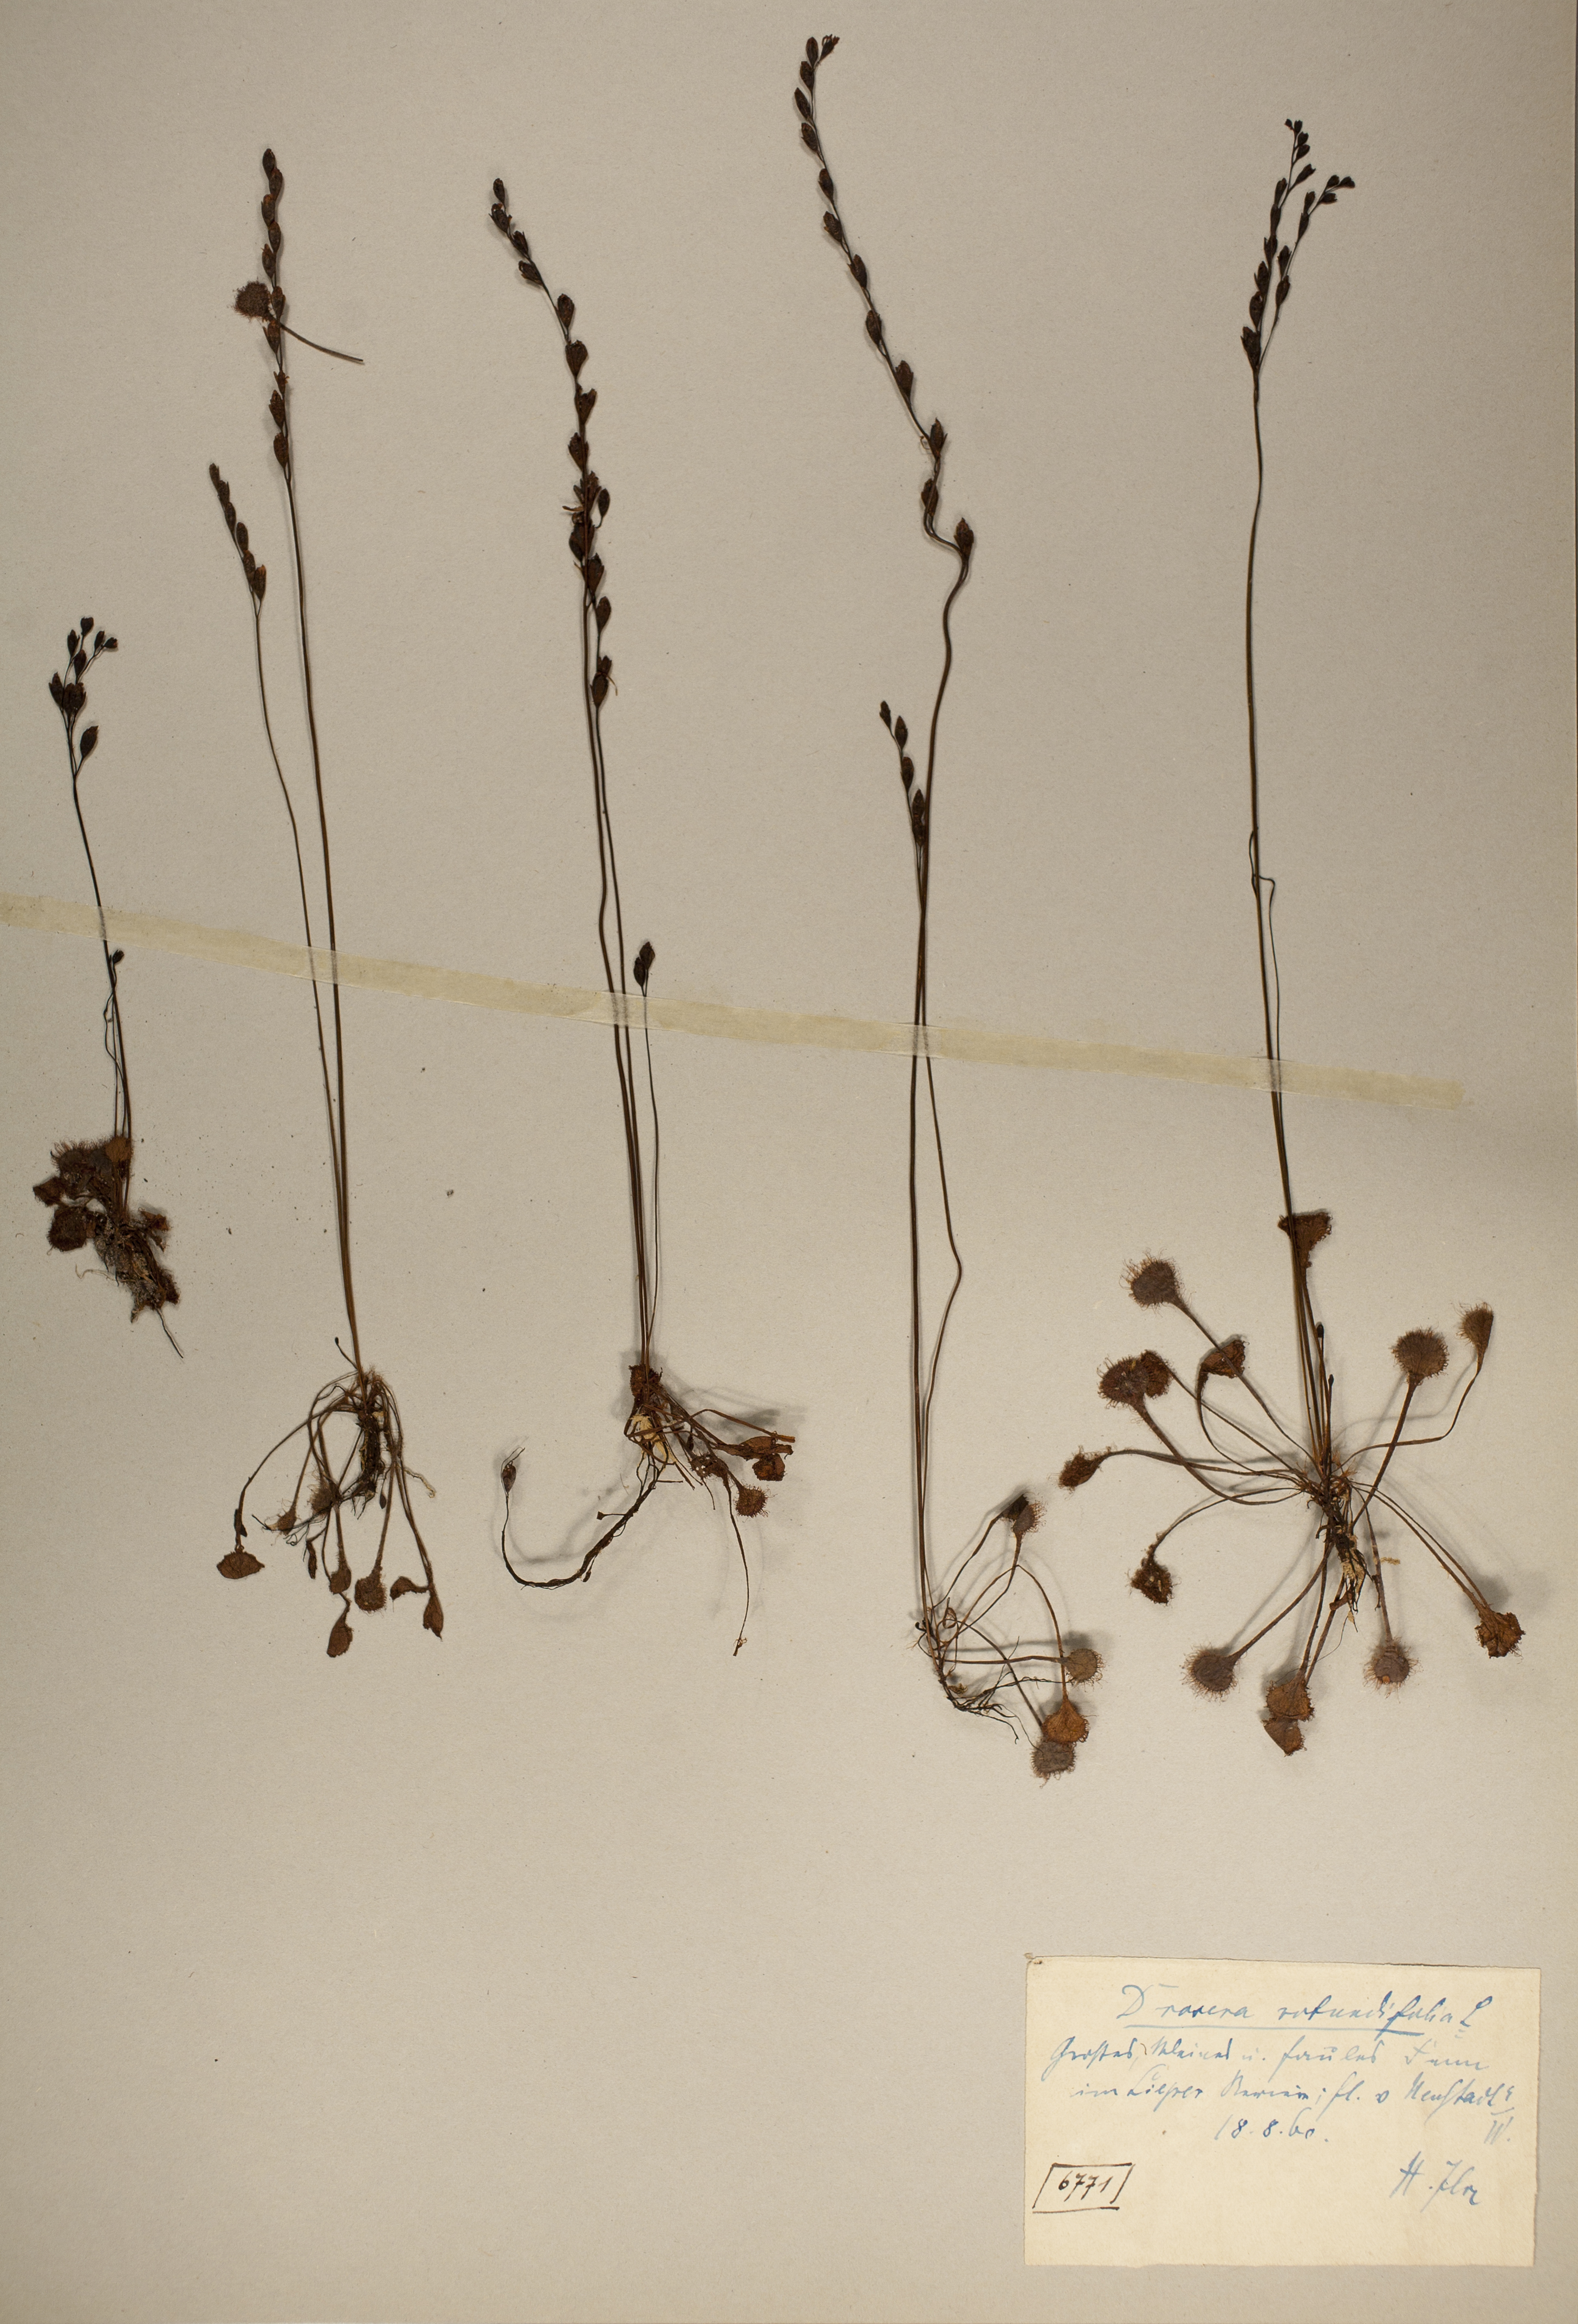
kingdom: Plantae
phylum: Tracheophyta
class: Magnoliopsida
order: Caryophyllales
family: Droseraceae
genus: Drosera
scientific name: Drosera rotundifolia
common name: Round-leaved sundew
